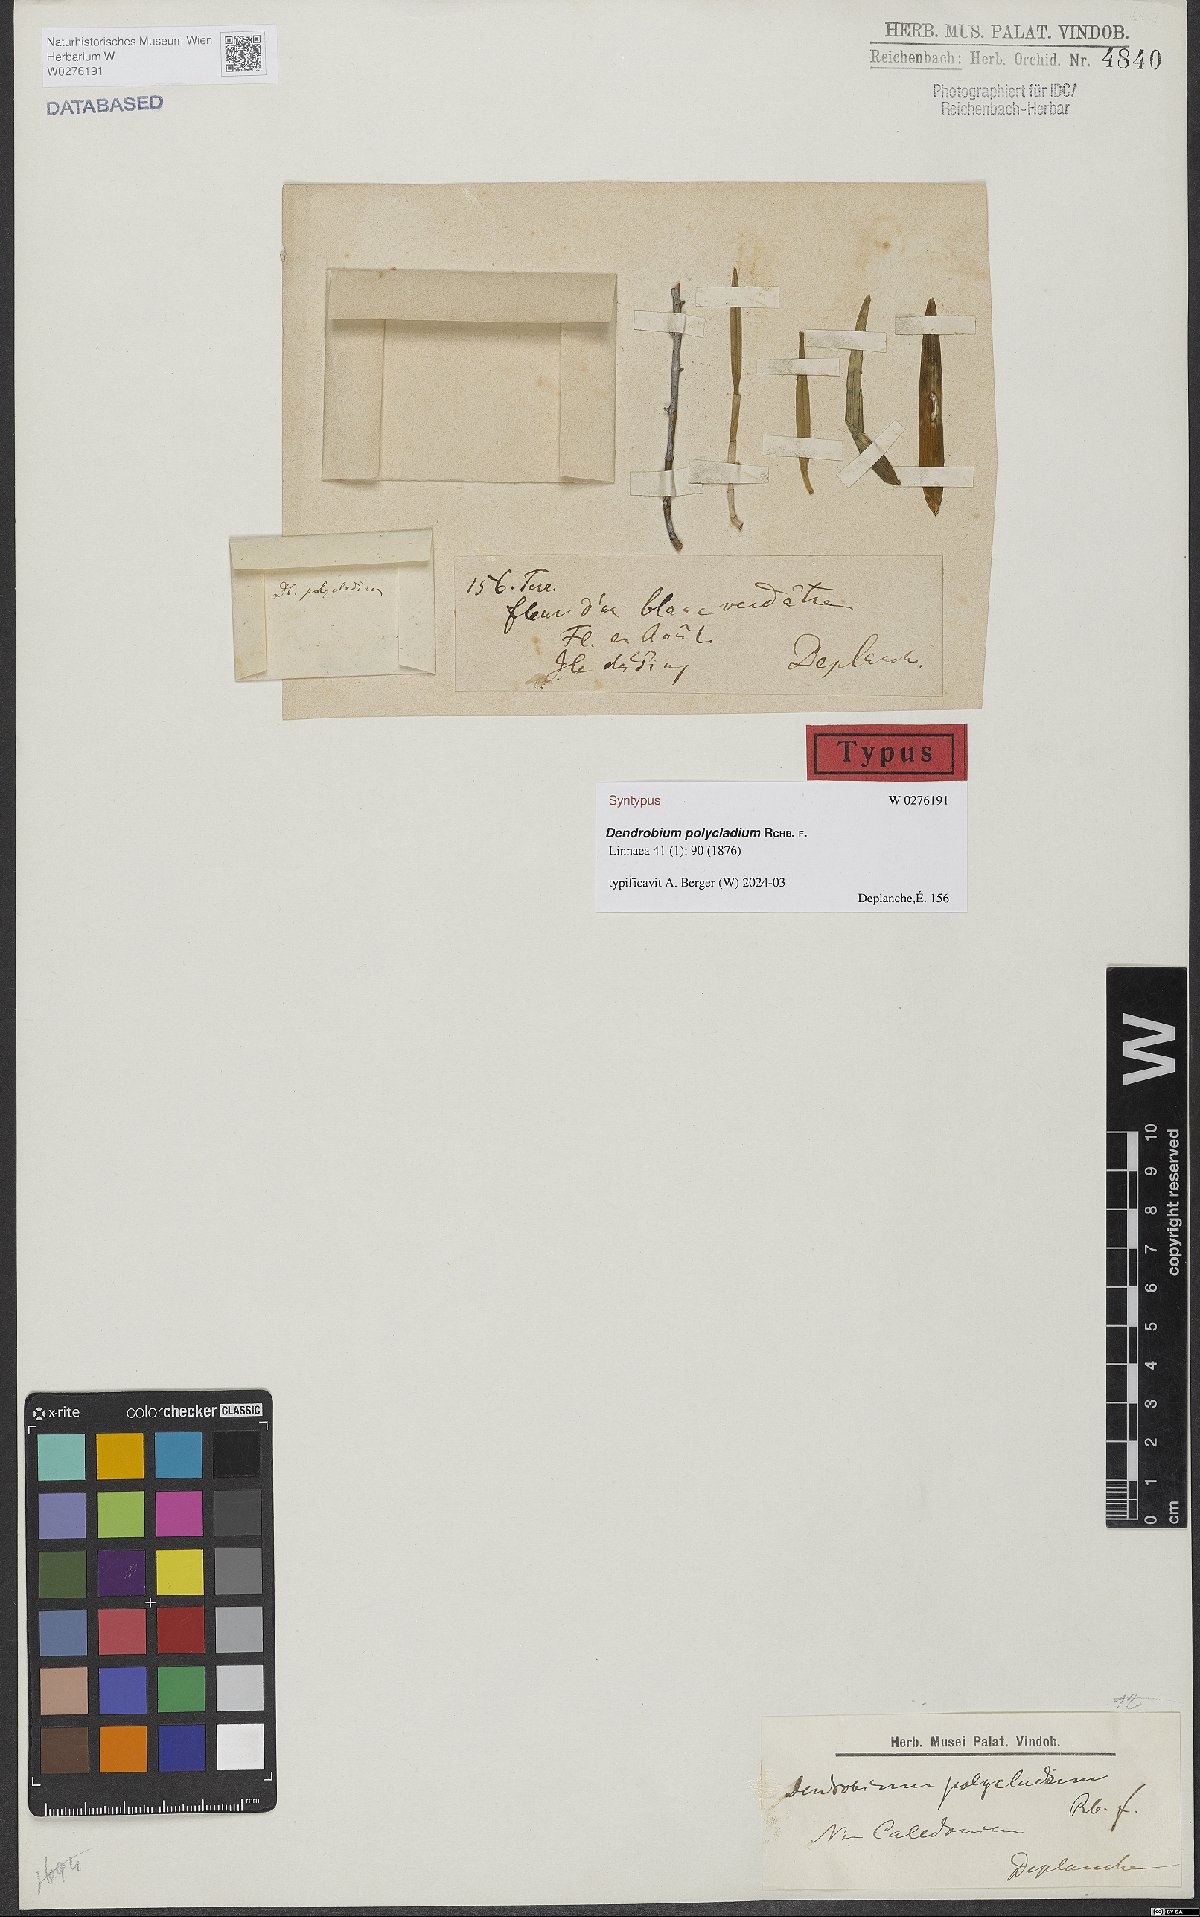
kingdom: Plantae
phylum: Tracheophyta
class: Liliopsida
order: Asparagales
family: Orchidaceae
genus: Dendrobium
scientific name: Dendrobium polycladium
